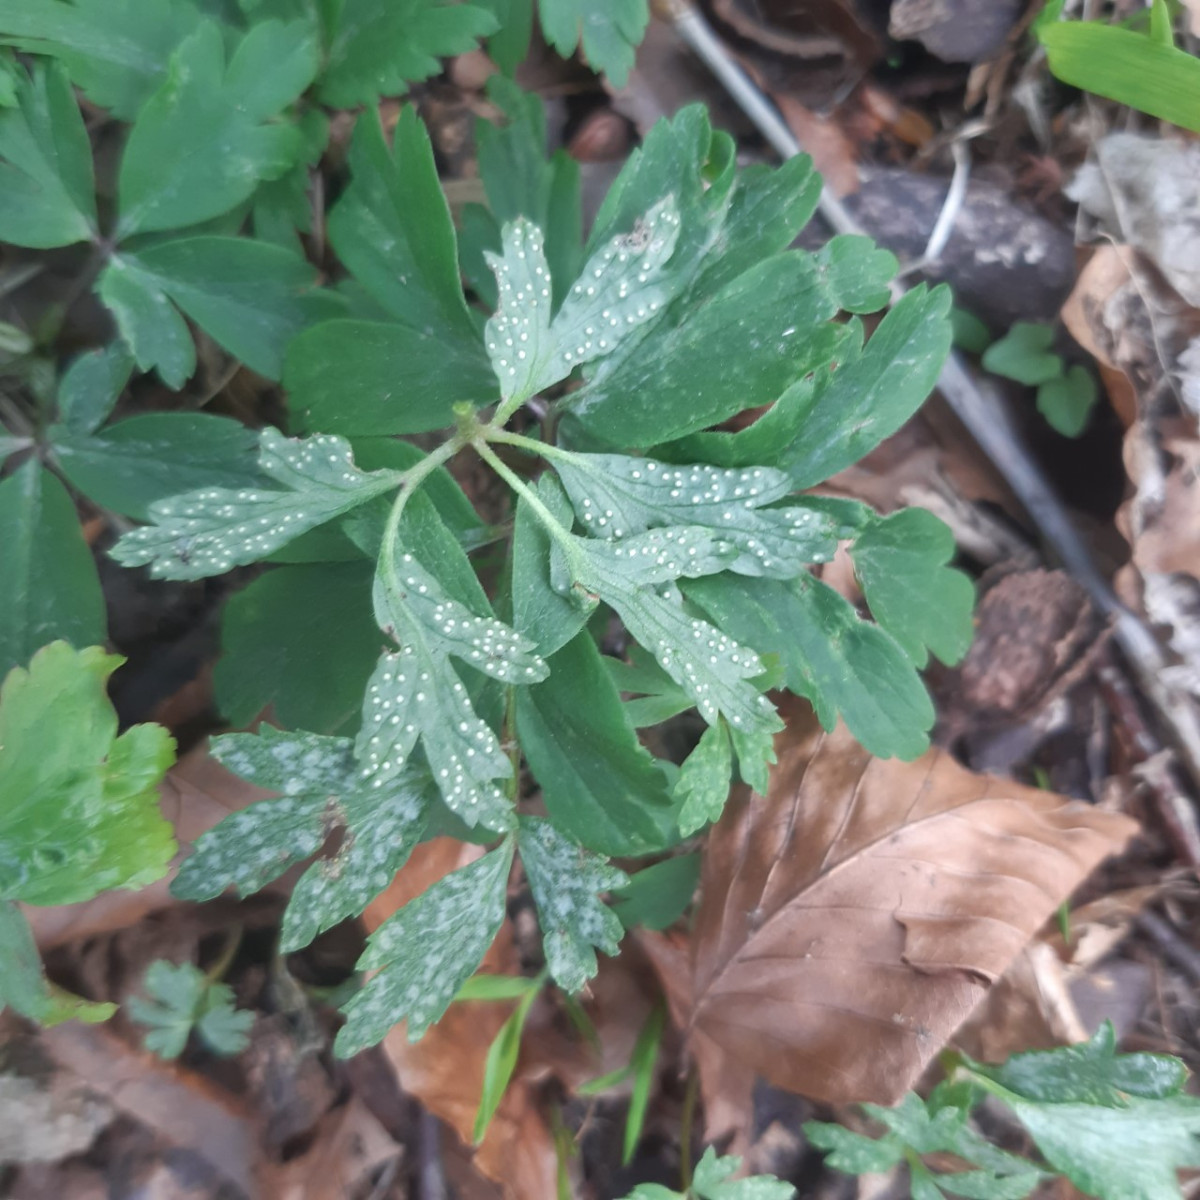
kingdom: Fungi
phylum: Basidiomycota
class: Pucciniomycetes
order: Pucciniales
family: Ochropsoraceae
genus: Ochropsora
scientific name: Ochropsora ariae
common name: anemone-okkerpletrust
